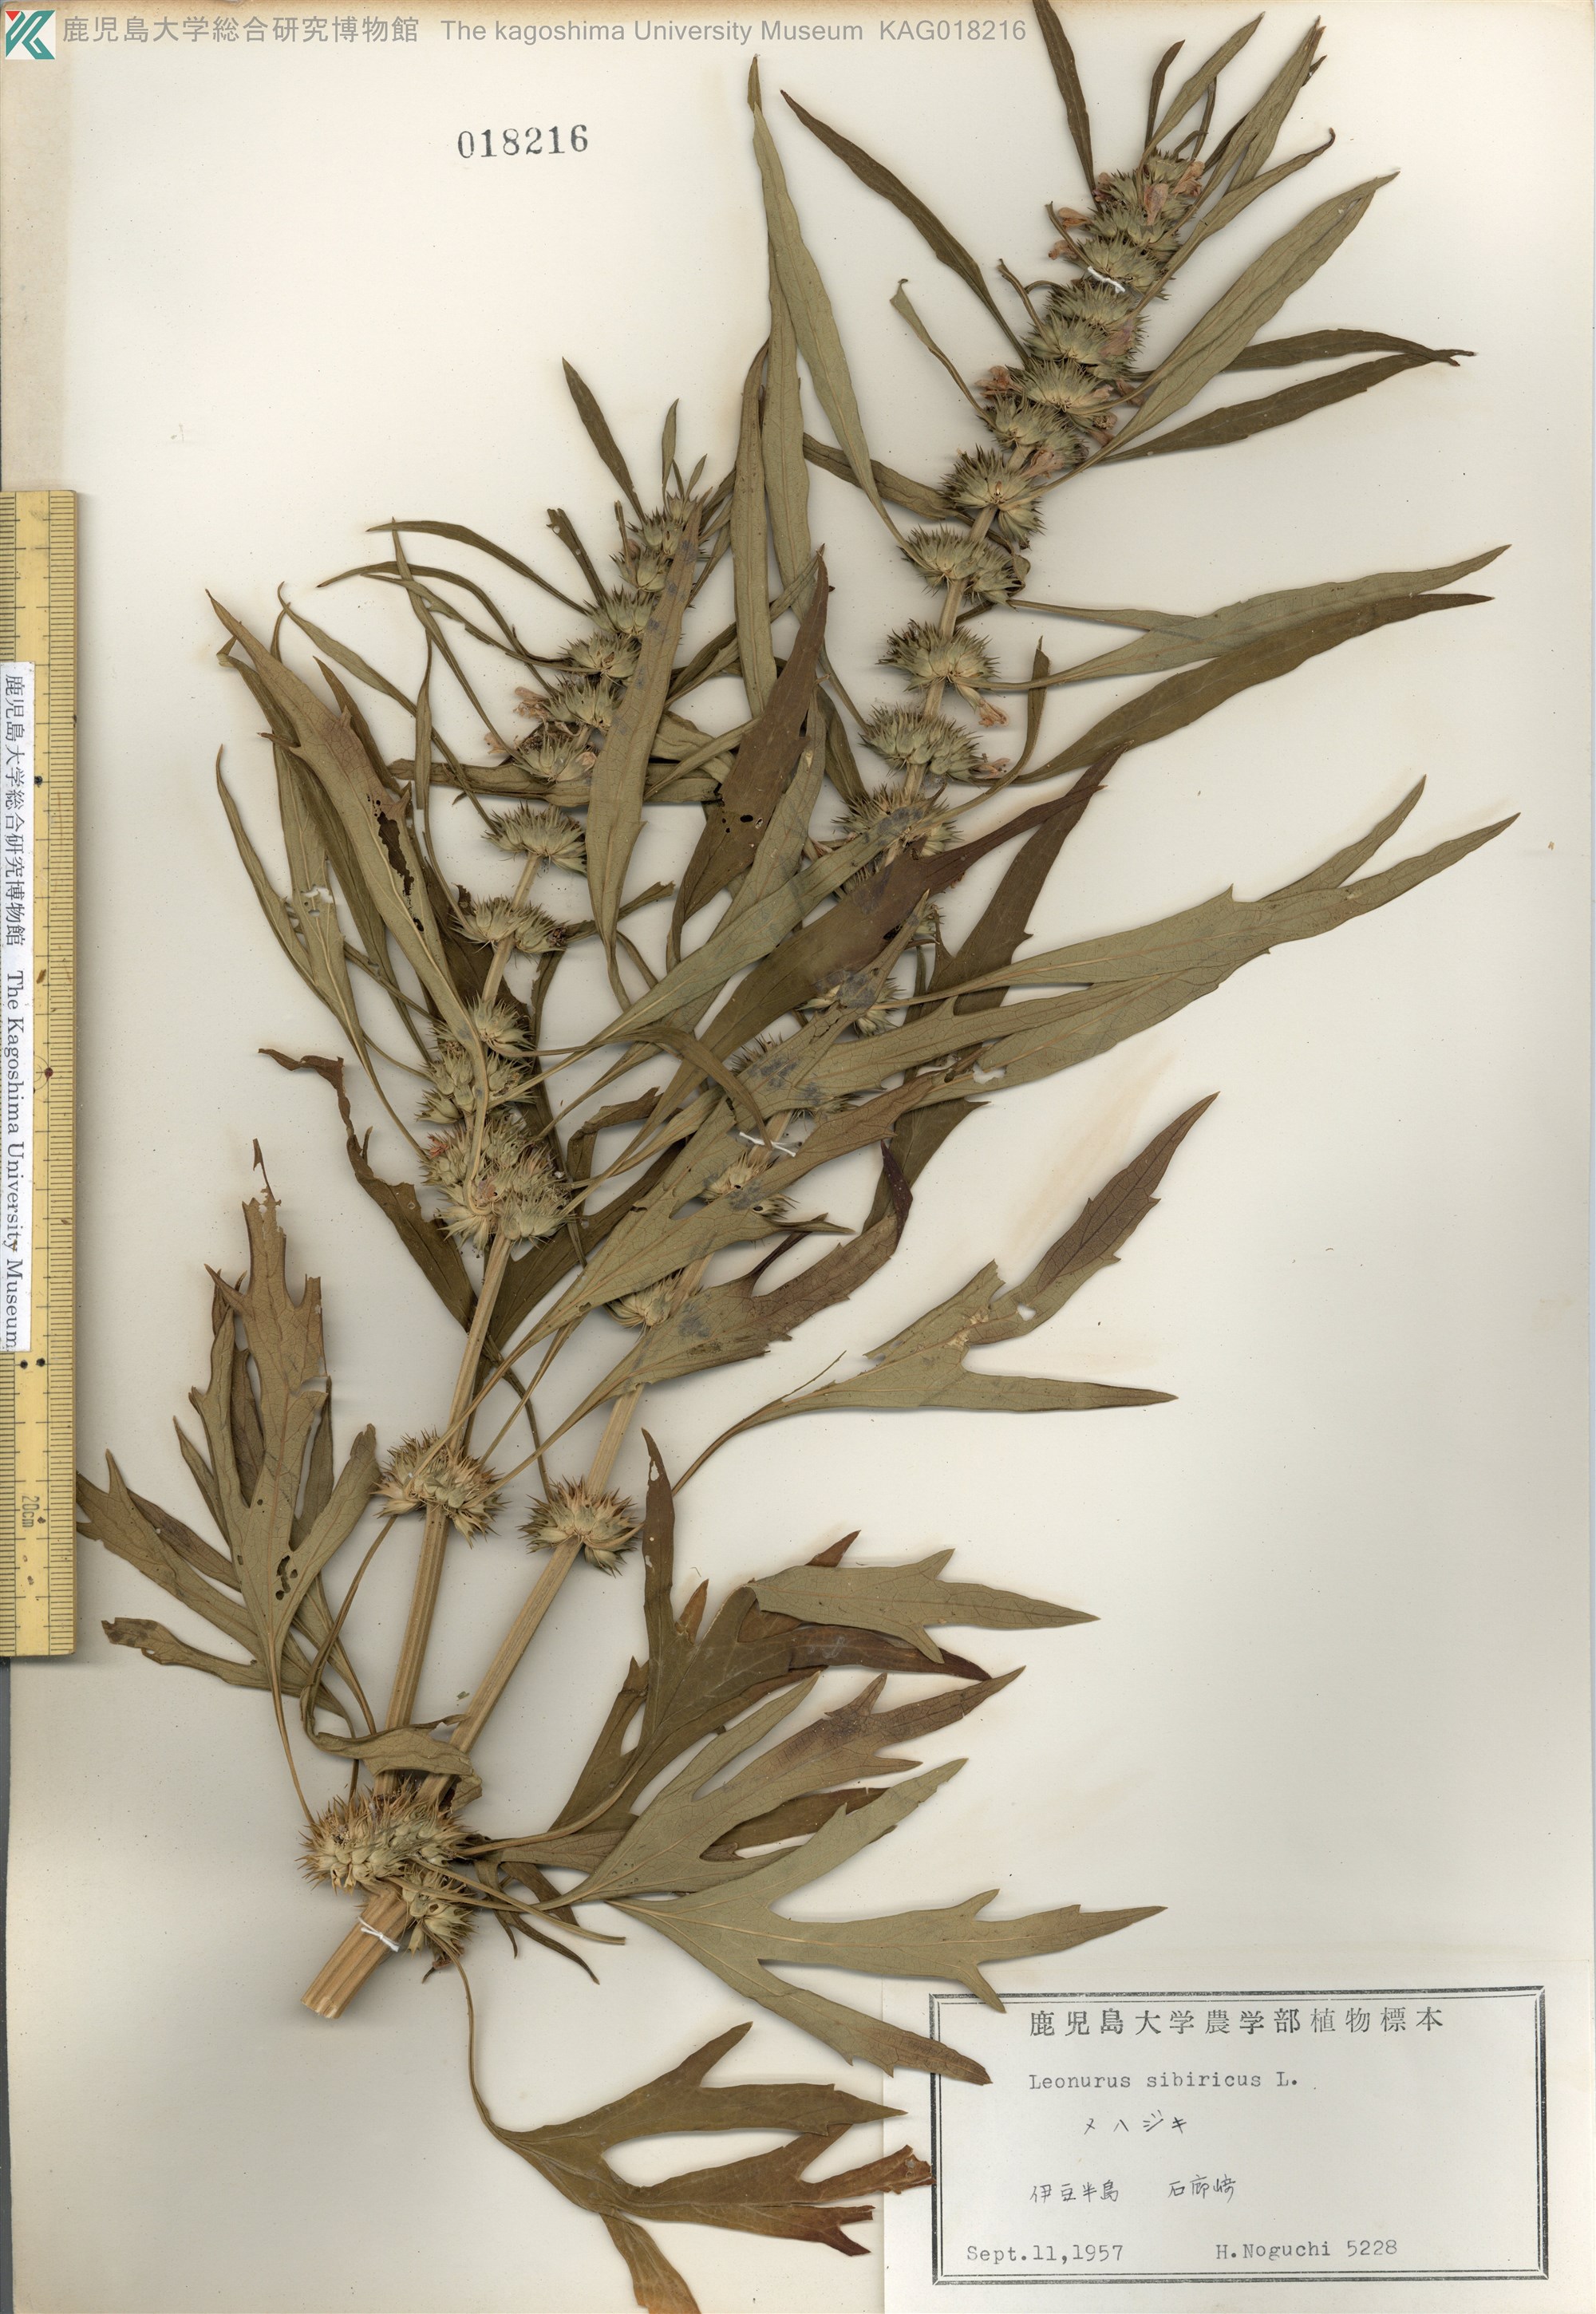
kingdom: Plantae
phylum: Tracheophyta
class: Magnoliopsida
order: Lamiales
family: Lamiaceae
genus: Leonurus
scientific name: Leonurus japonicus
